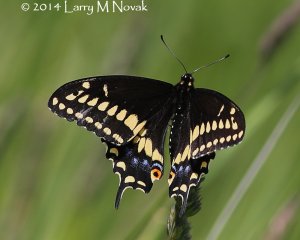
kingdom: Animalia
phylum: Arthropoda
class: Insecta
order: Lepidoptera
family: Papilionidae
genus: Papilio
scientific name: Papilio polyxenes
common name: Black Swallowtail
